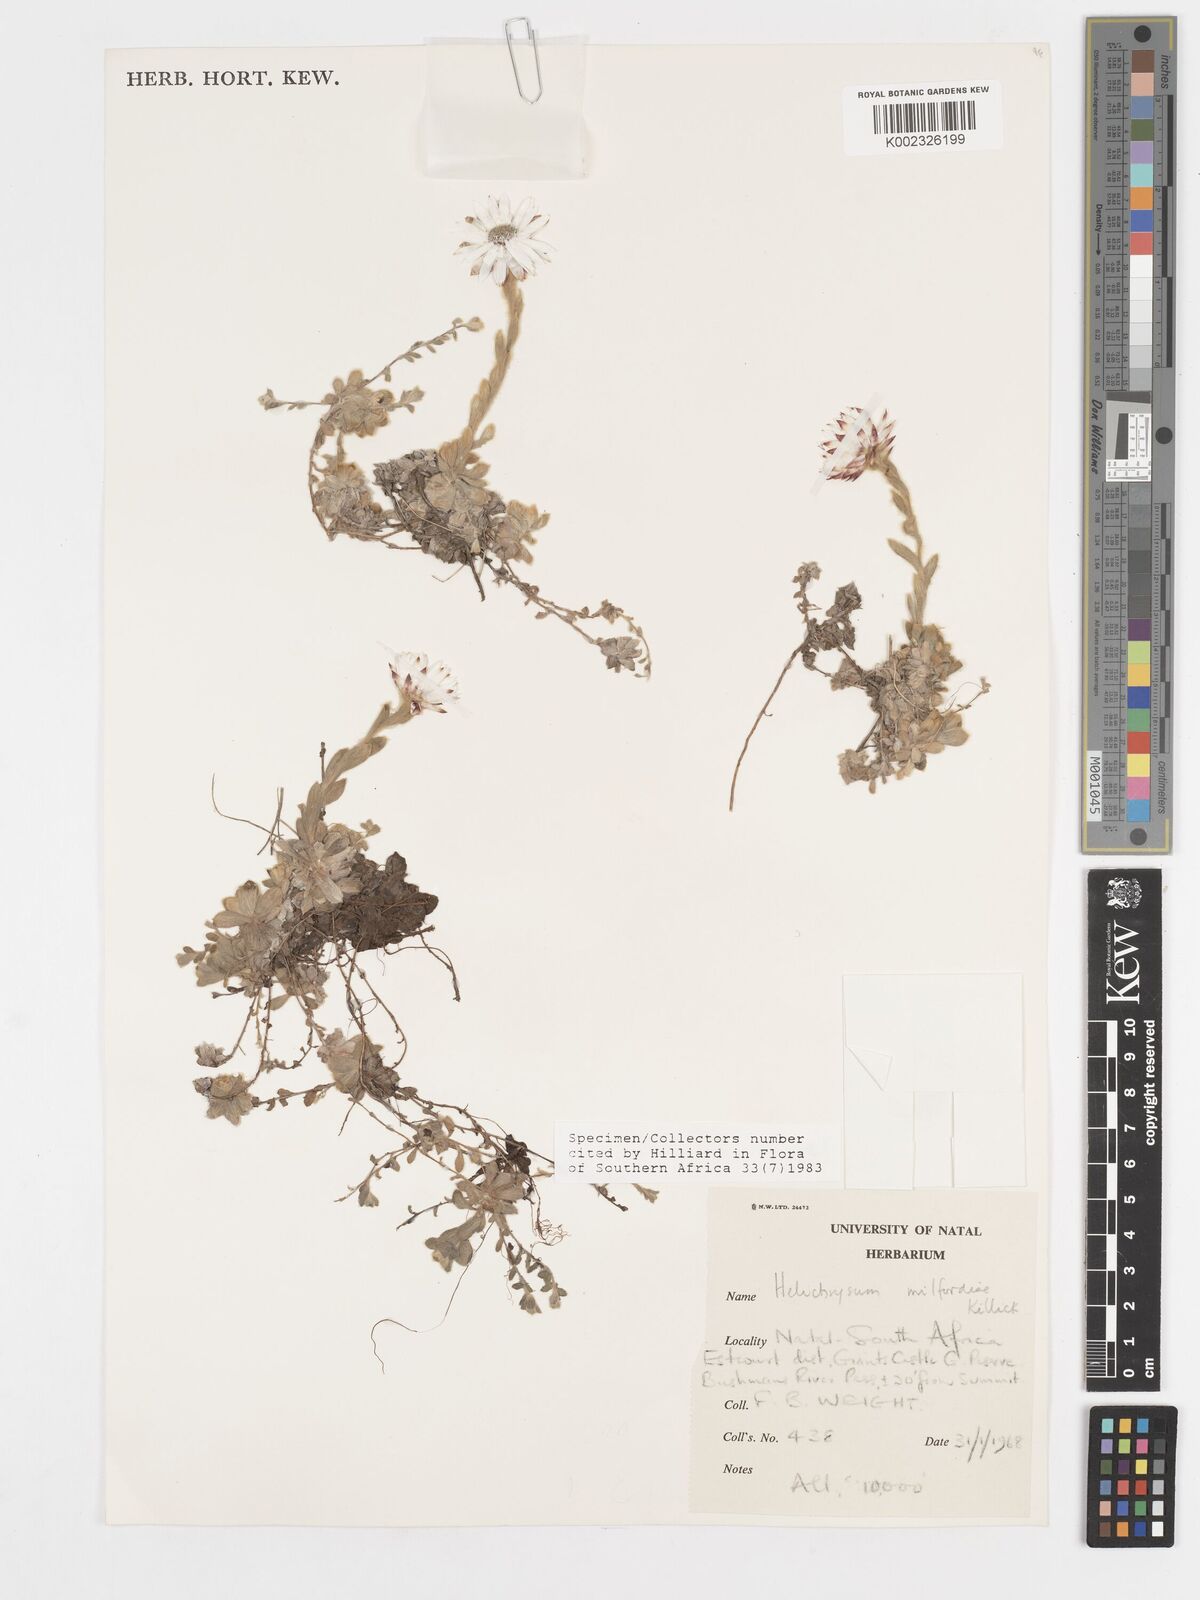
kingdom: Plantae
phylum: Tracheophyta
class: Magnoliopsida
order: Asterales
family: Asteraceae
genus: Helichrysum
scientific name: Helichrysum milfordiae
